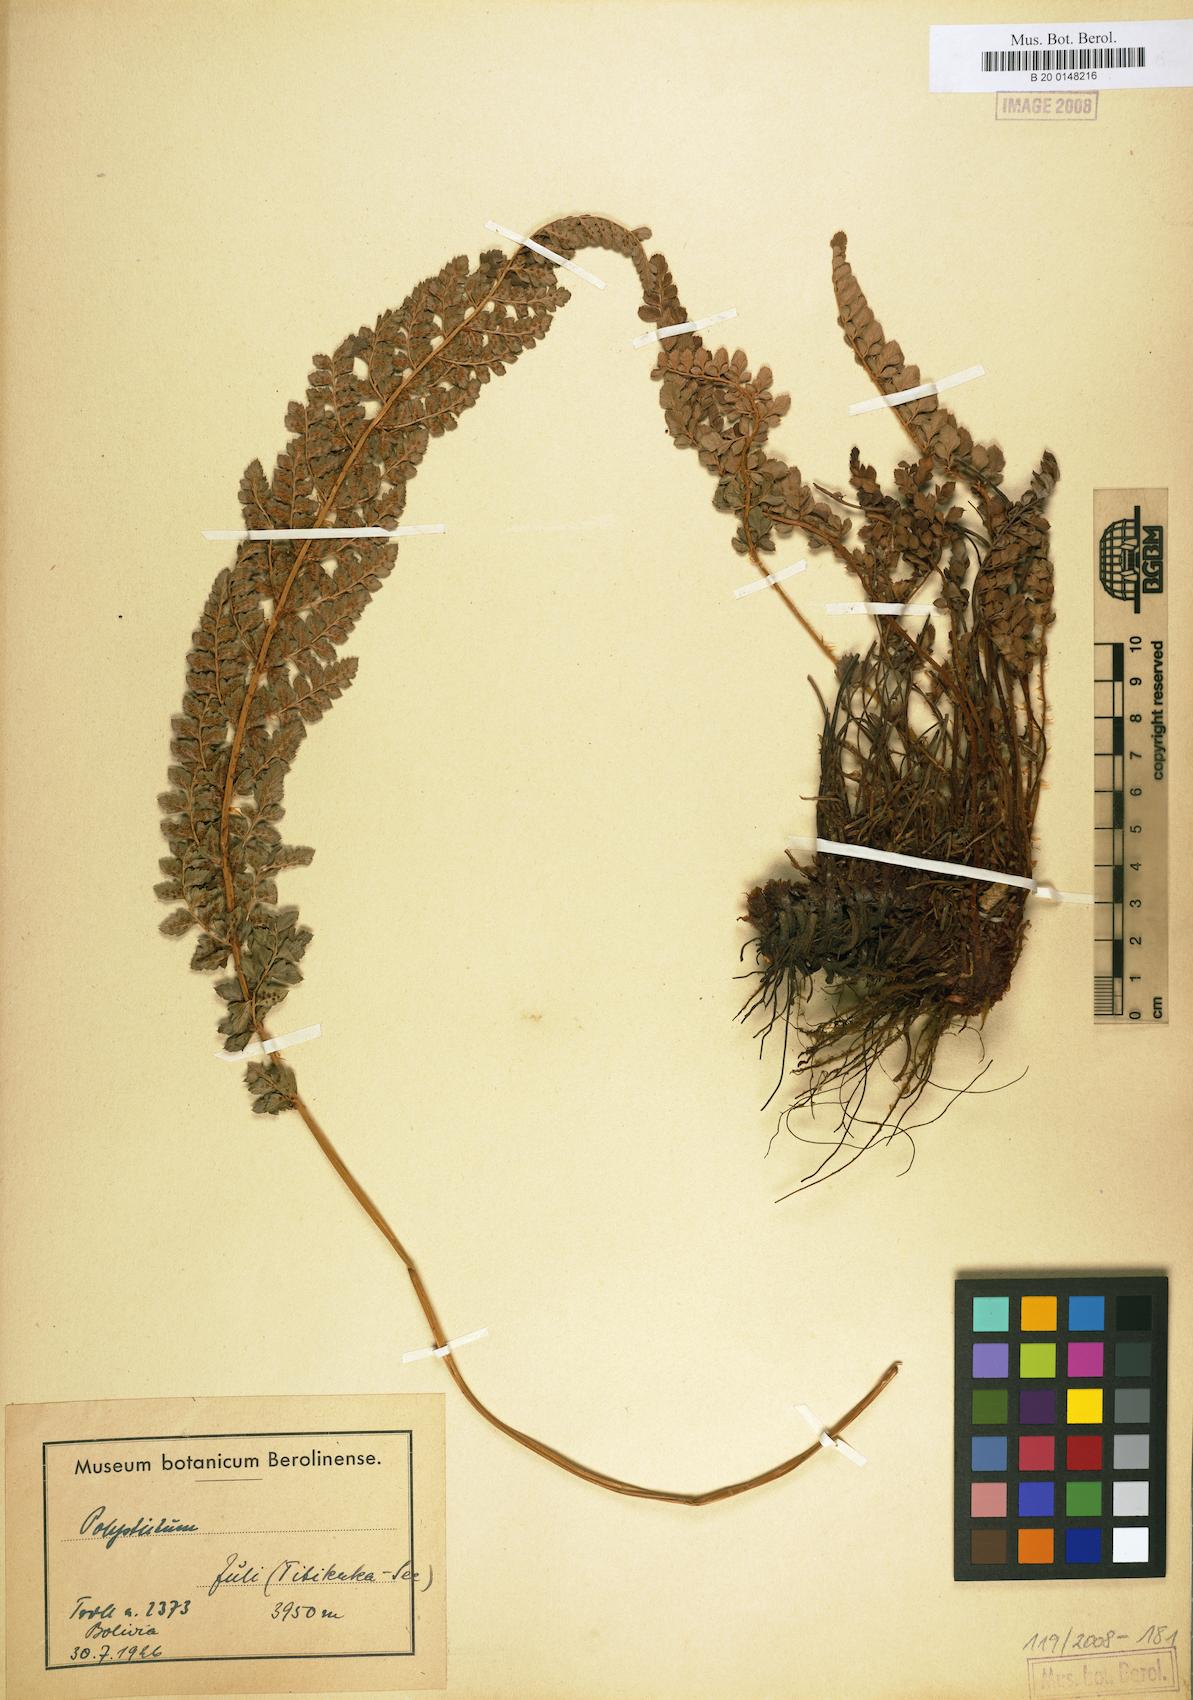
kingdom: Plantae
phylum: Tracheophyta
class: Polypodiopsida
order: Polypodiales
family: Dryopteridaceae
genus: Polystichum
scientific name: Polystichum
